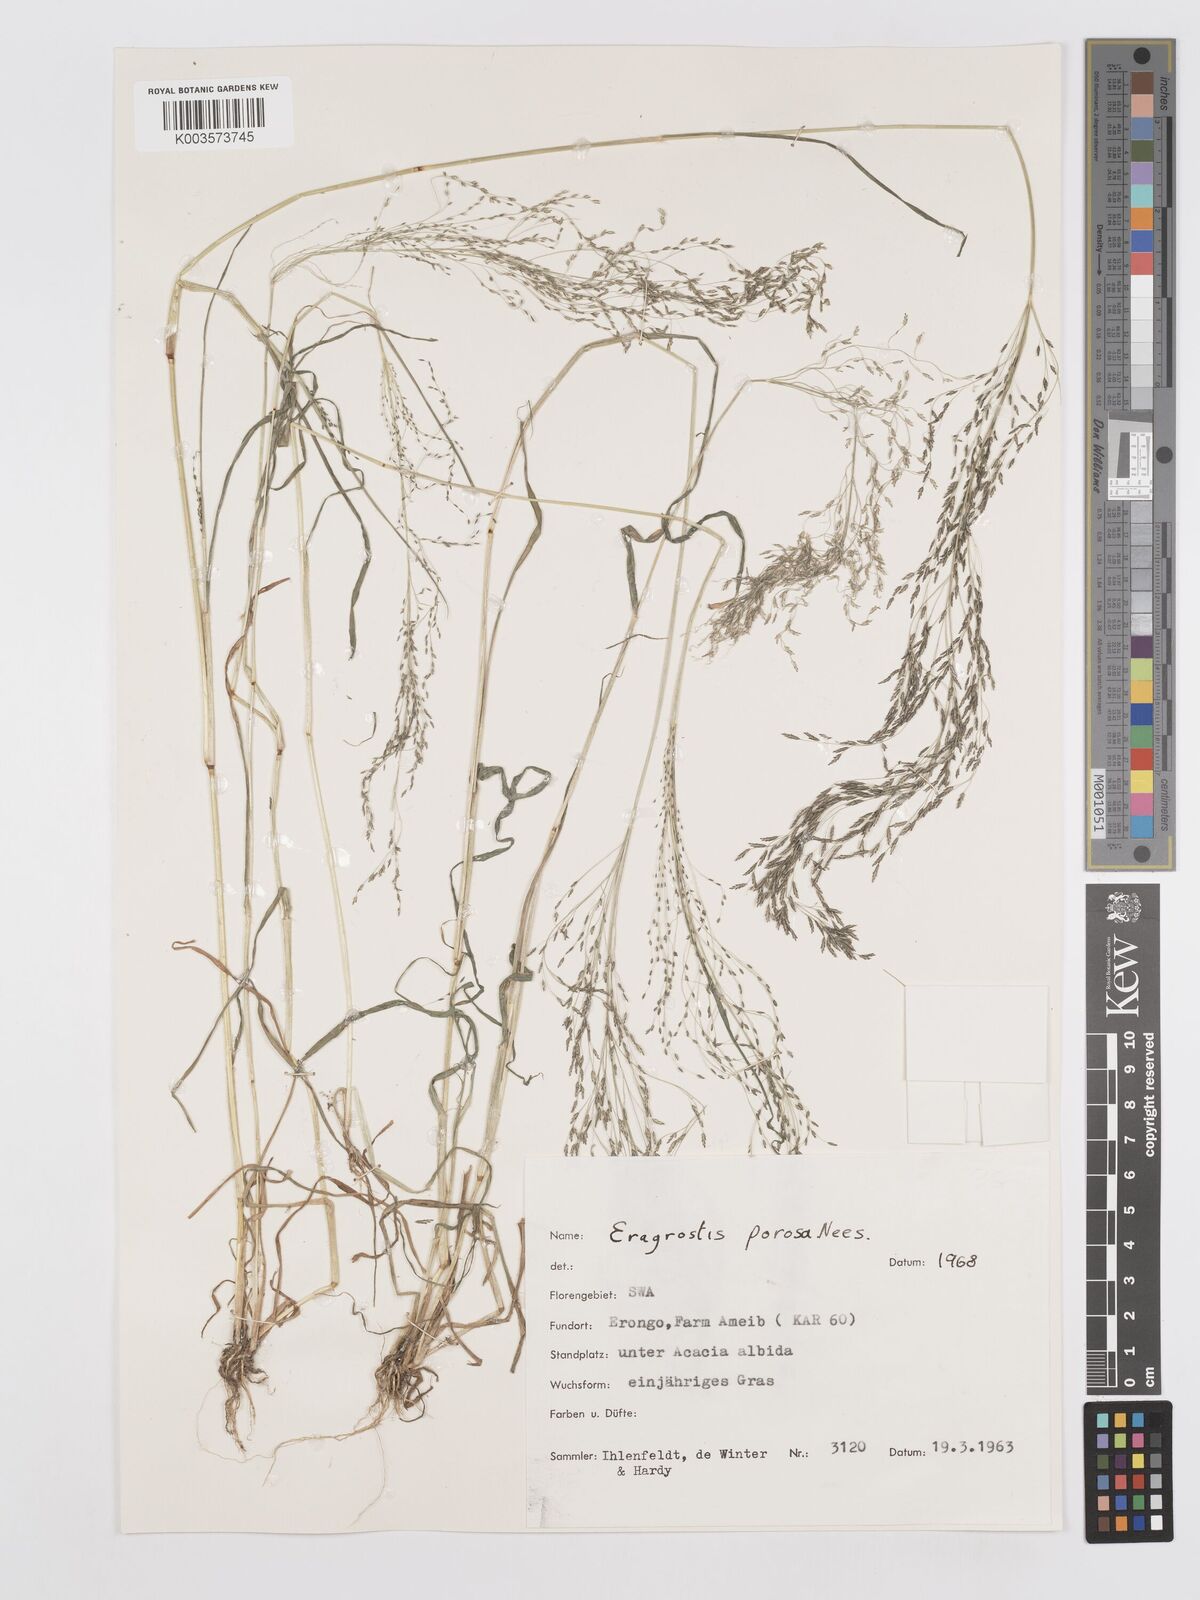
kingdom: Plantae
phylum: Tracheophyta
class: Liliopsida
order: Poales
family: Poaceae
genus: Eragrostis
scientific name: Eragrostis porosa
